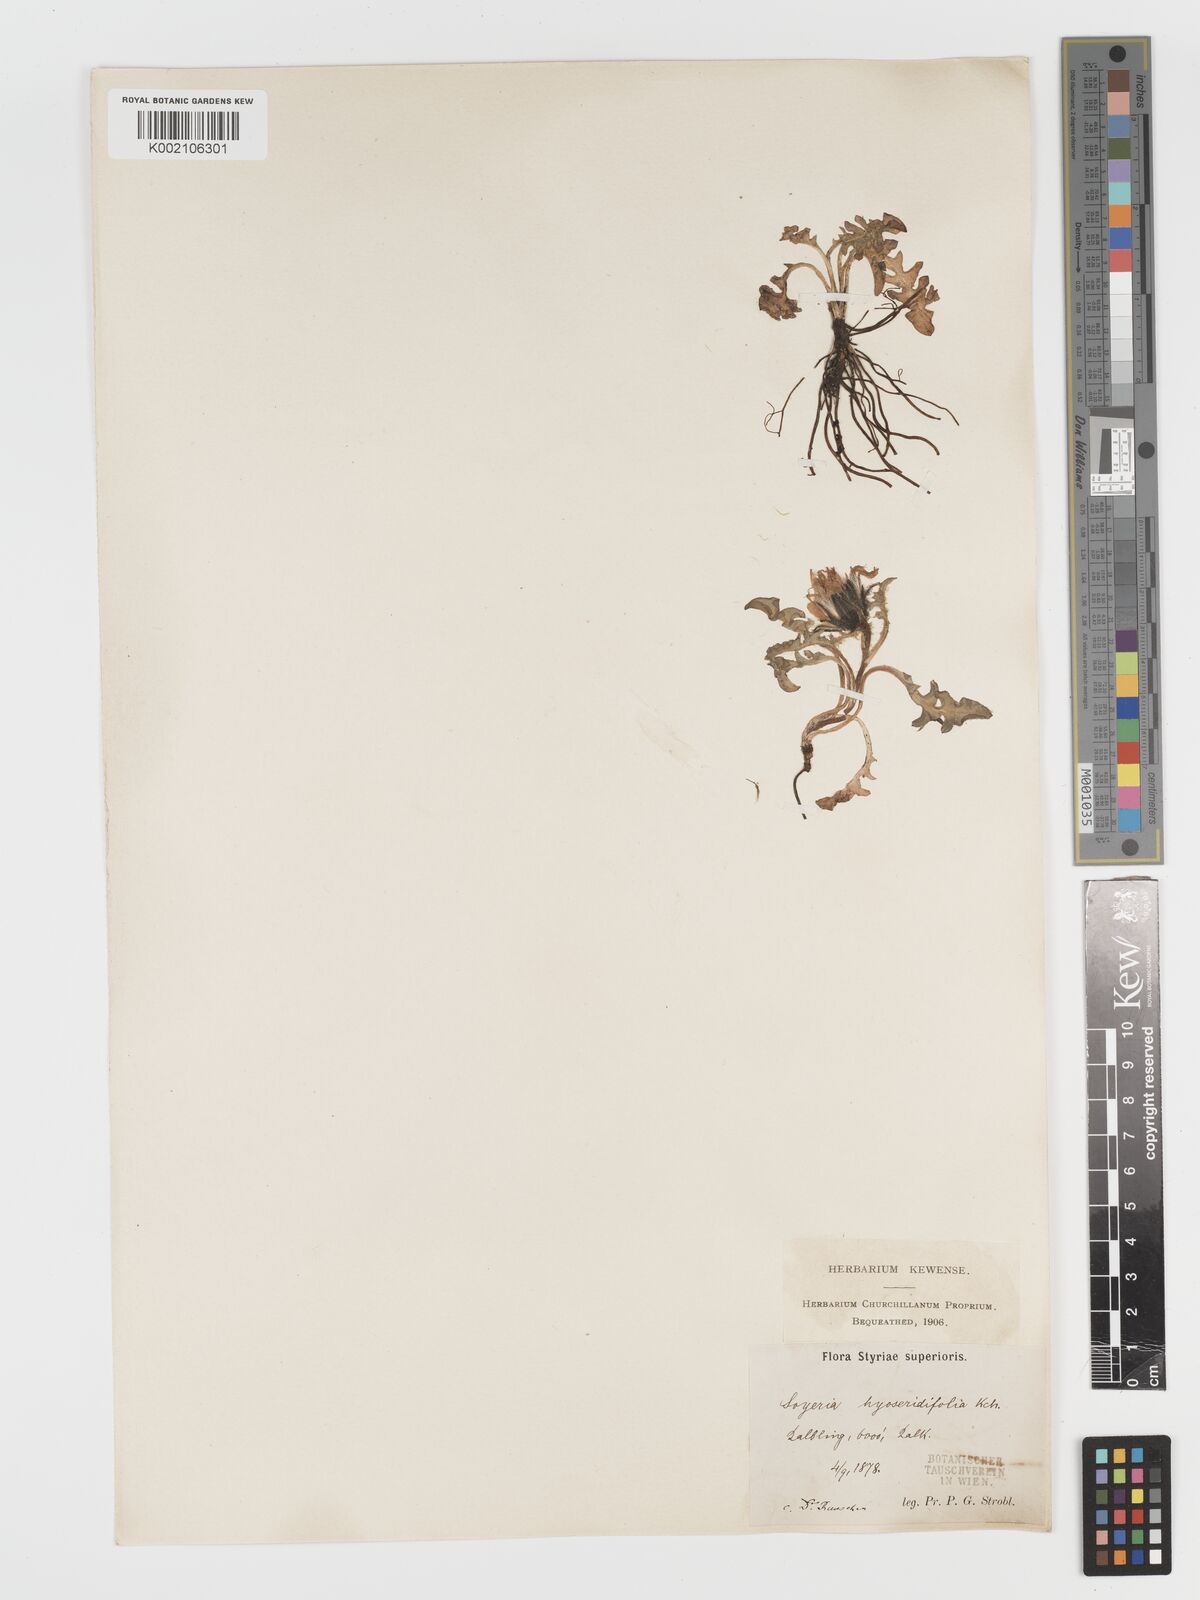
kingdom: Plantae
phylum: Tracheophyta
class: Magnoliopsida
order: Asterales
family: Asteraceae
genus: Crepis
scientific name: Crepis terglouensis
